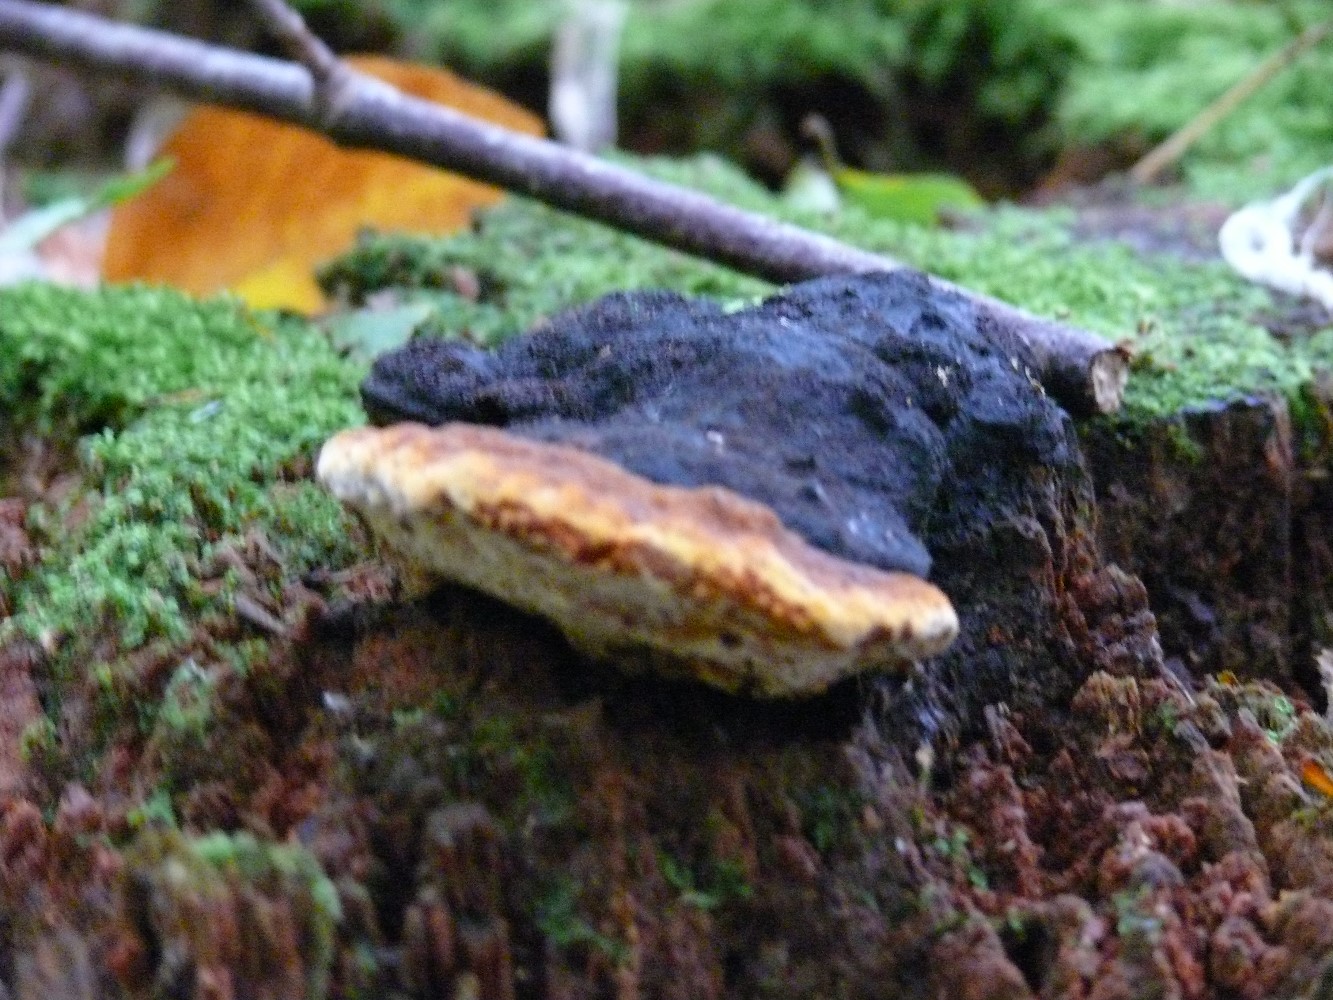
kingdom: Fungi
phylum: Basidiomycota
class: Agaricomycetes
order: Polyporales
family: Fomitopsidaceae
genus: Fomitopsis
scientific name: Fomitopsis pinicola
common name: randbæltet hovporesvamp
